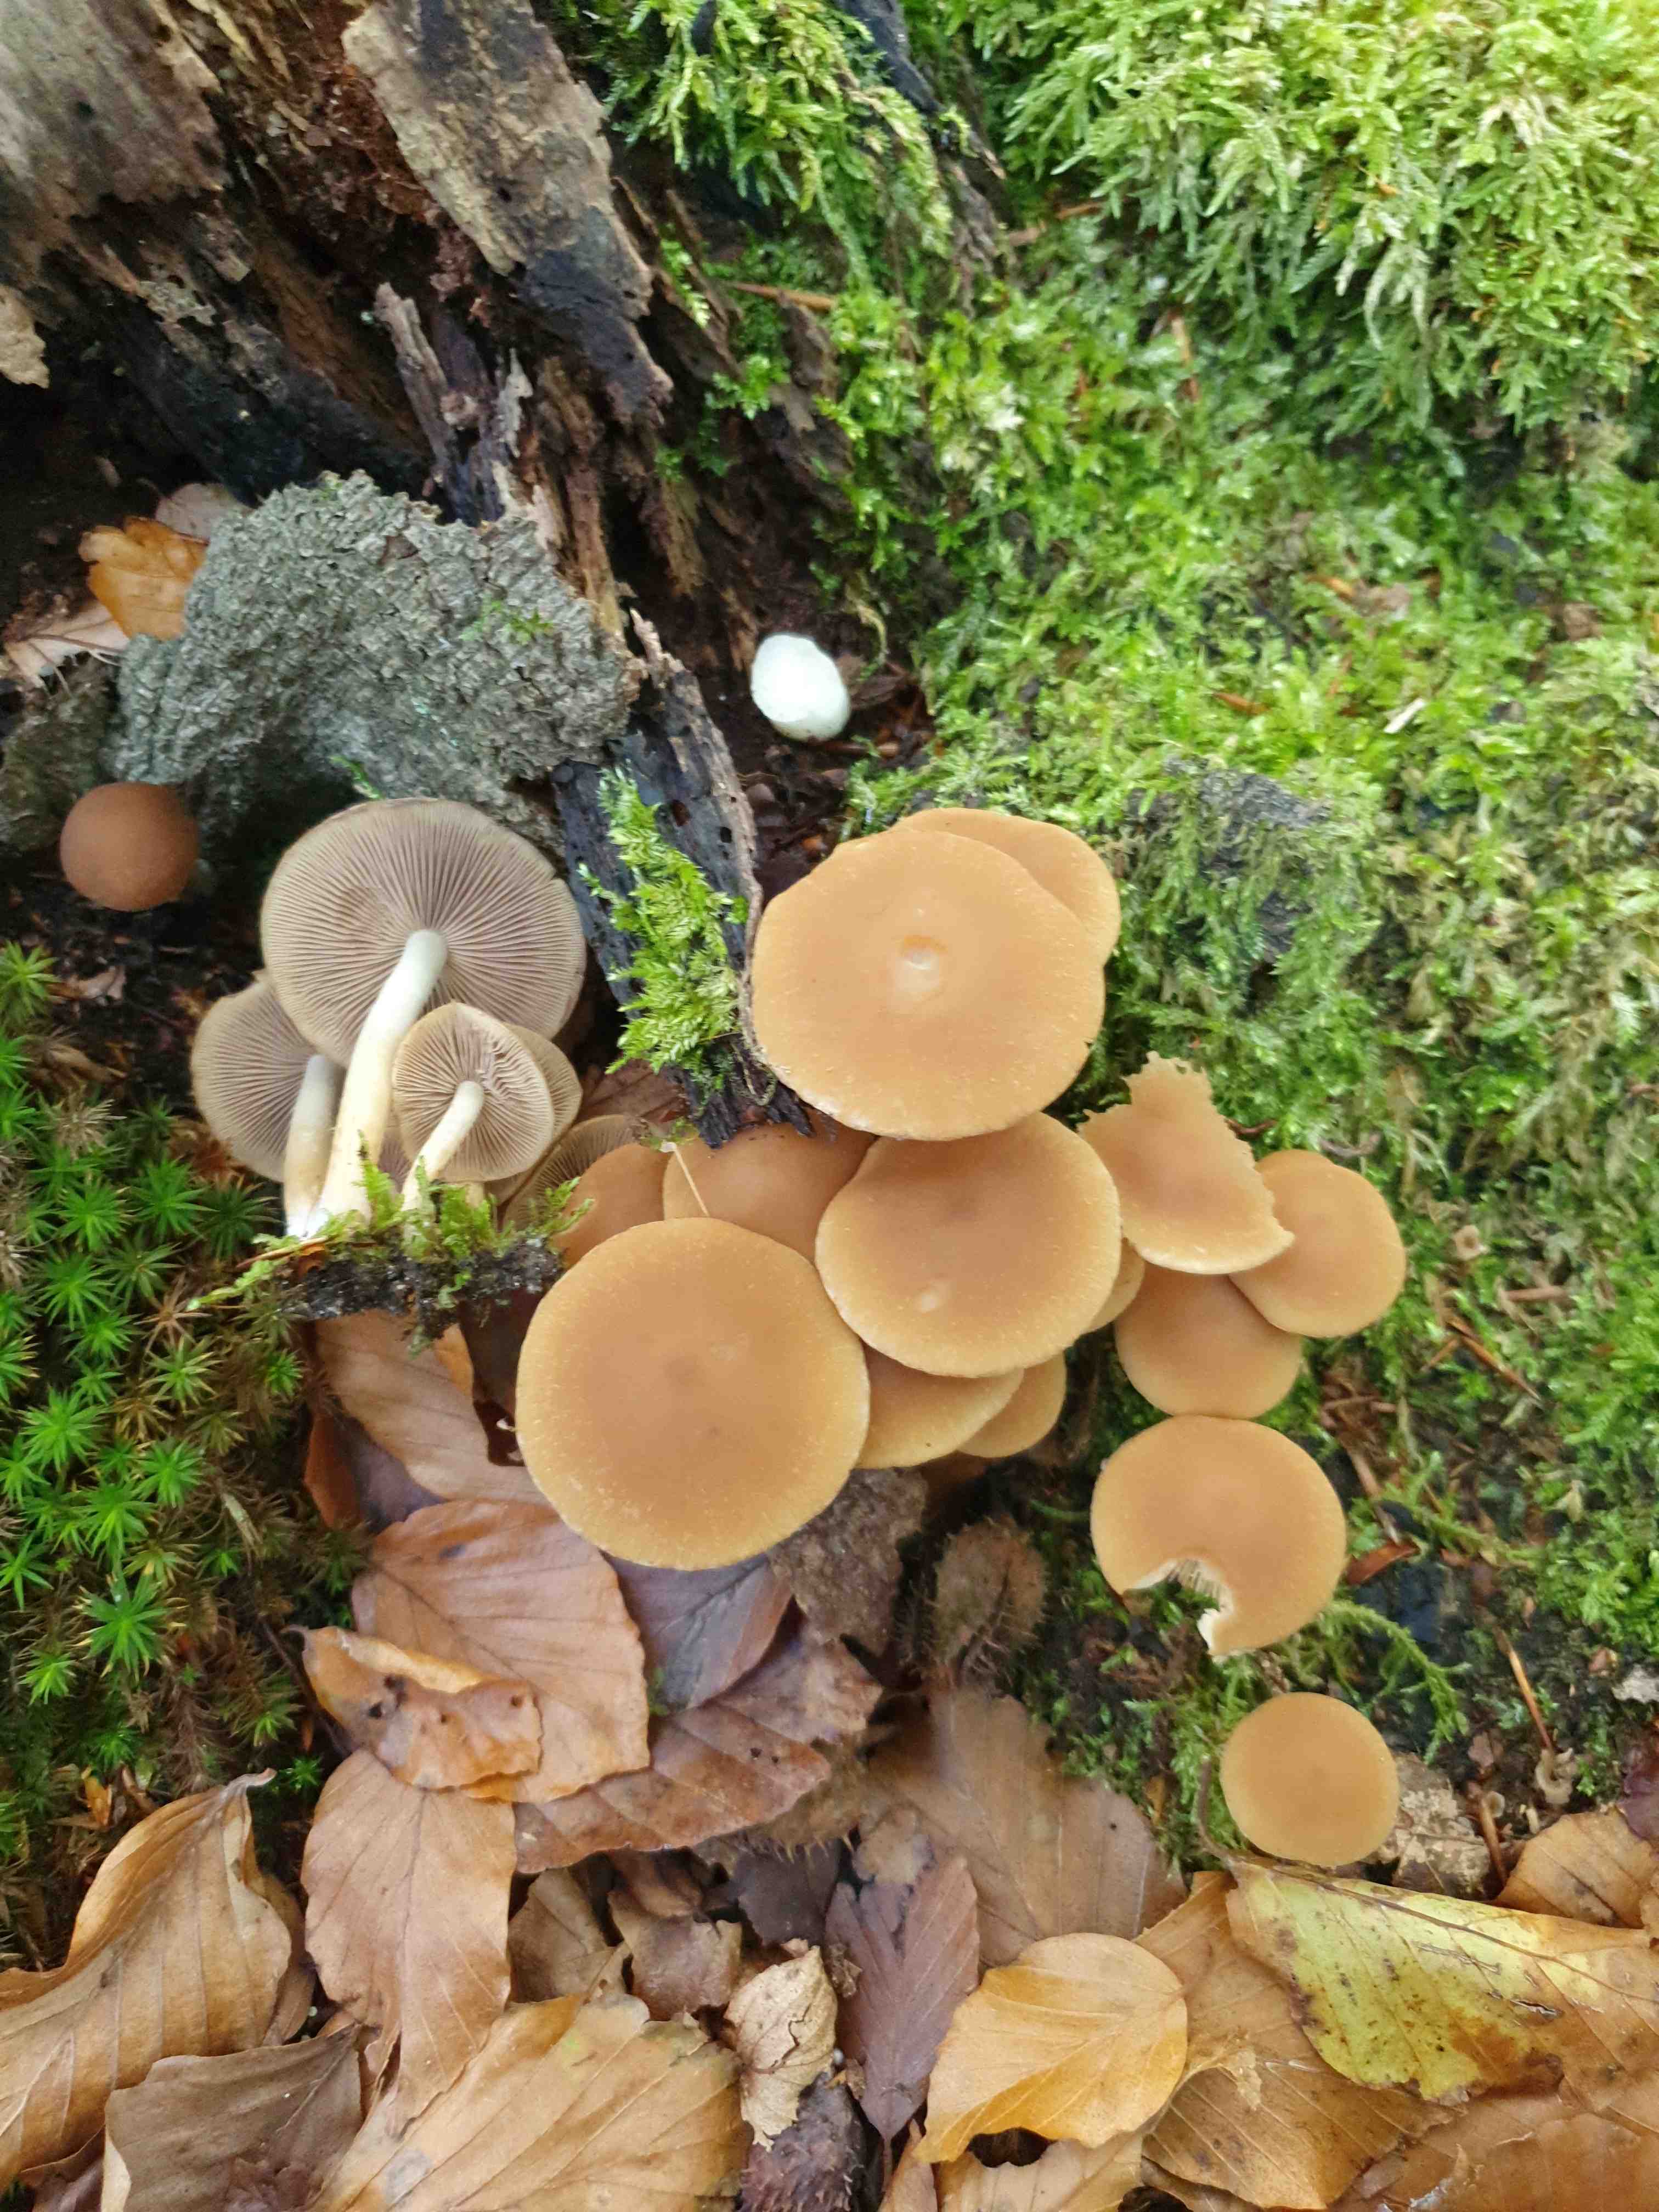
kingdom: Fungi
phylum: Basidiomycota
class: Agaricomycetes
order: Agaricales
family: Psathyrellaceae
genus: Psathyrella
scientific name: Psathyrella piluliformis
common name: lysstokket mørkhat
